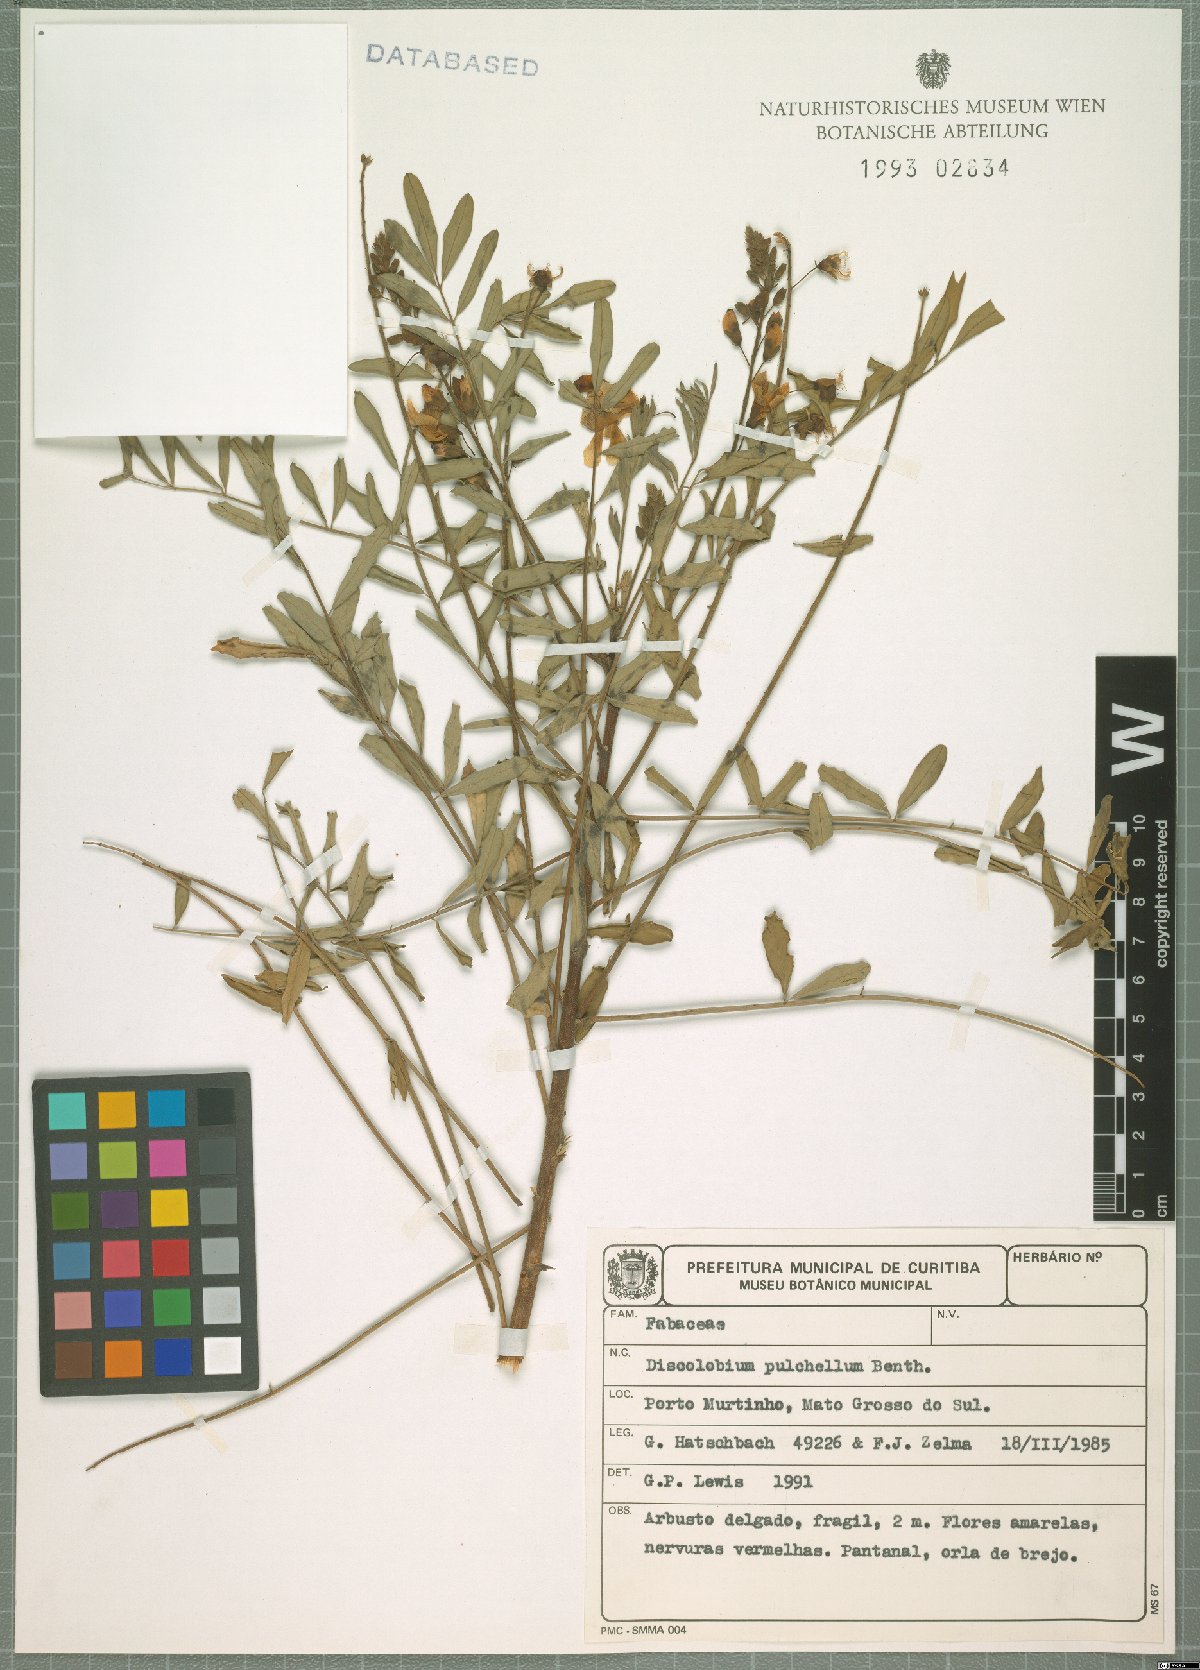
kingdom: Plantae
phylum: Tracheophyta
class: Magnoliopsida
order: Fabales
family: Fabaceae
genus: Discolobium
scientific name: Discolobium pulchellum
